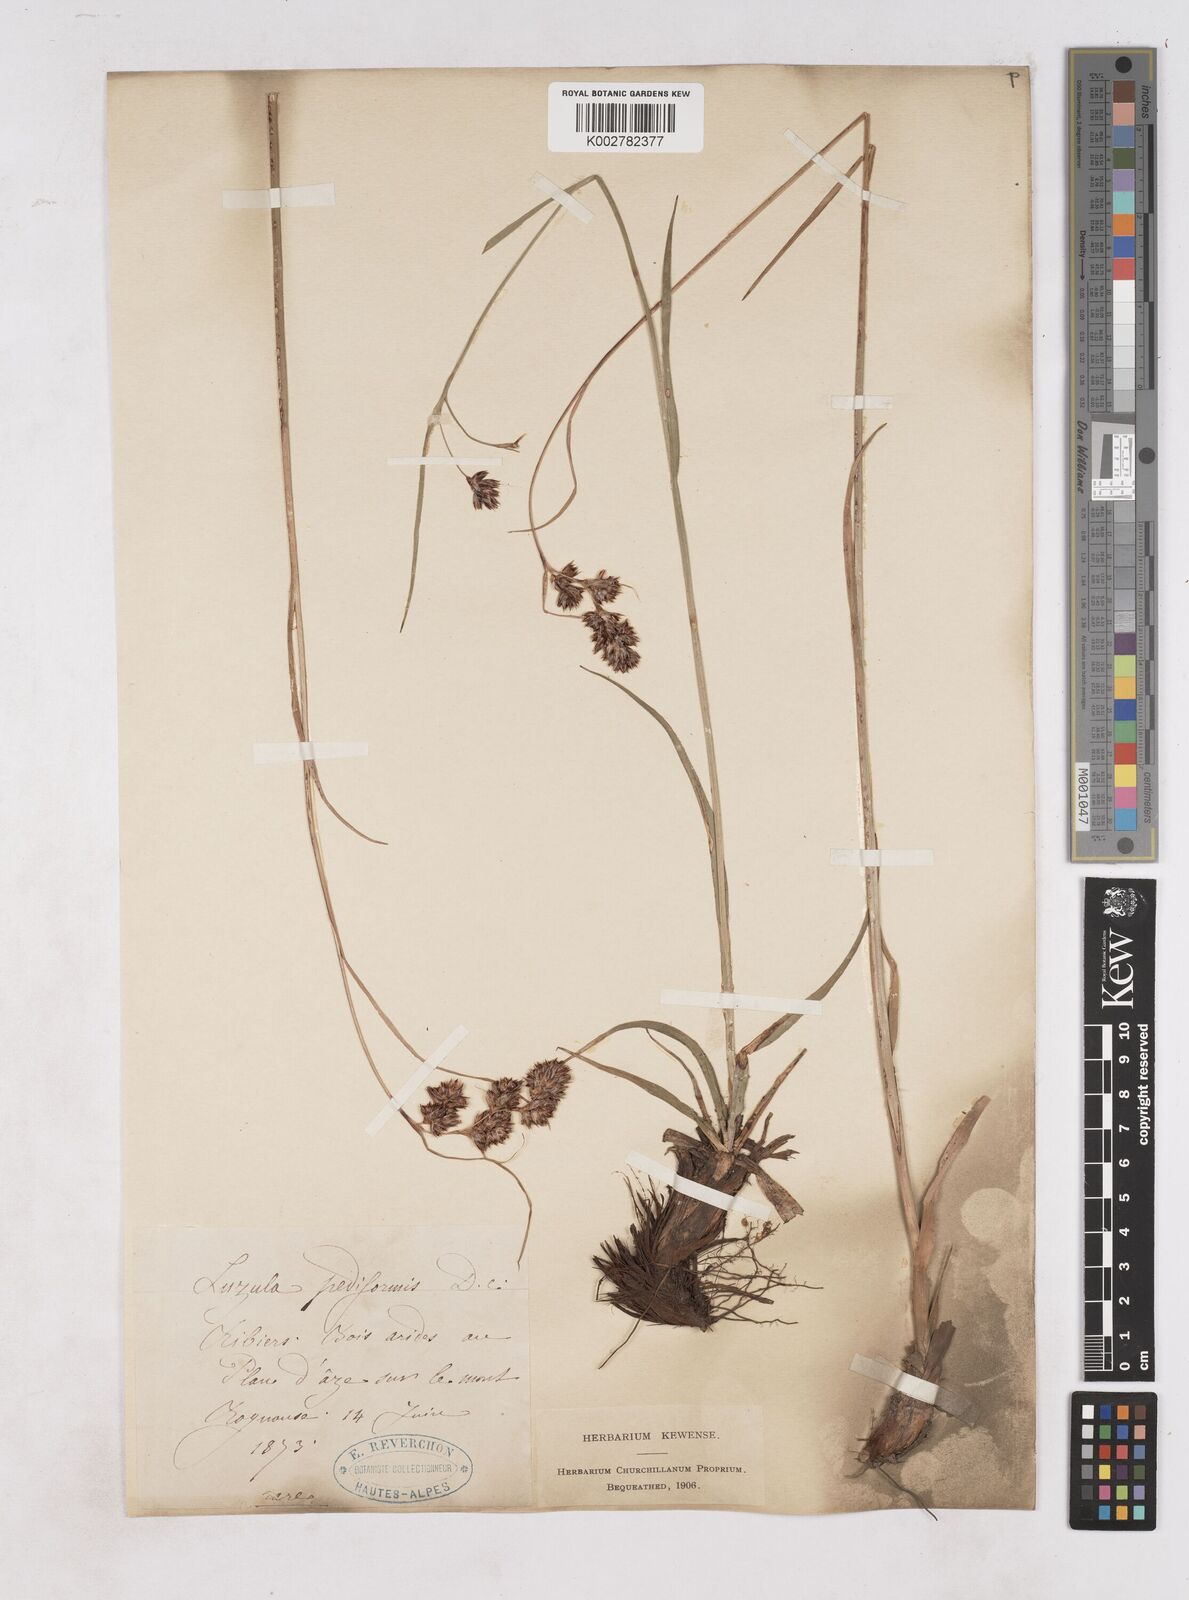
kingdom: Plantae
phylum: Tracheophyta
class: Liliopsida
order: Poales
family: Juncaceae
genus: Luzula
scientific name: Luzula pediformis
